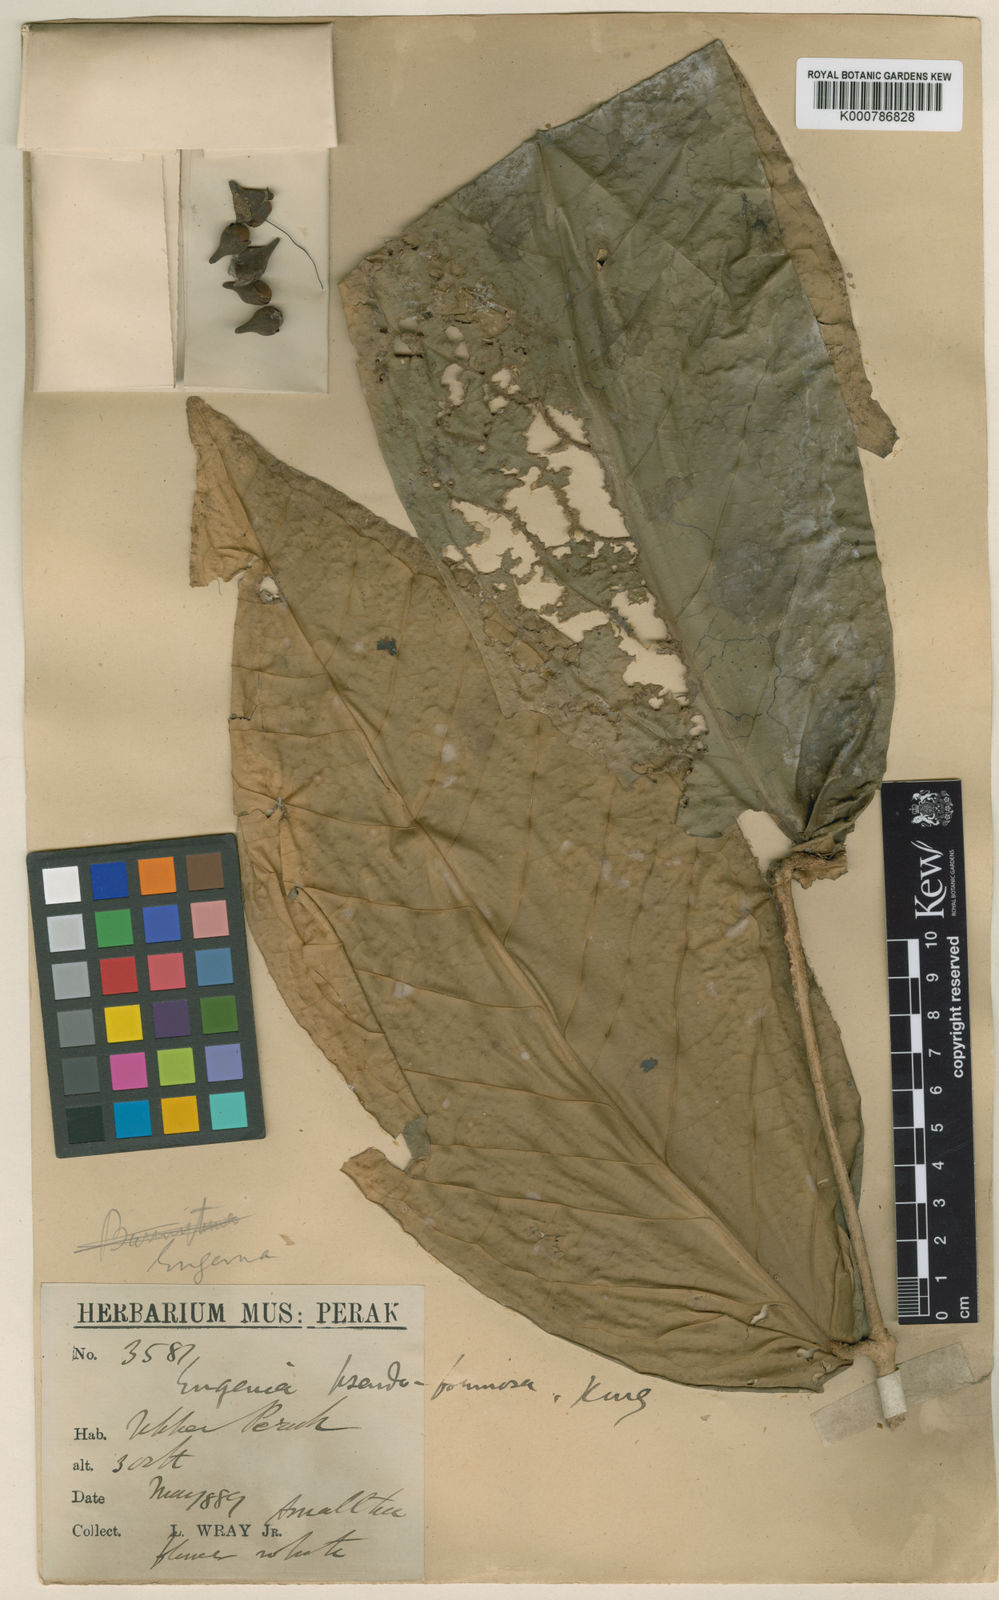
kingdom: Plantae
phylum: Tracheophyta
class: Magnoliopsida
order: Myrtales
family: Myrtaceae
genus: Syzygium
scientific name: Syzygium formosum
